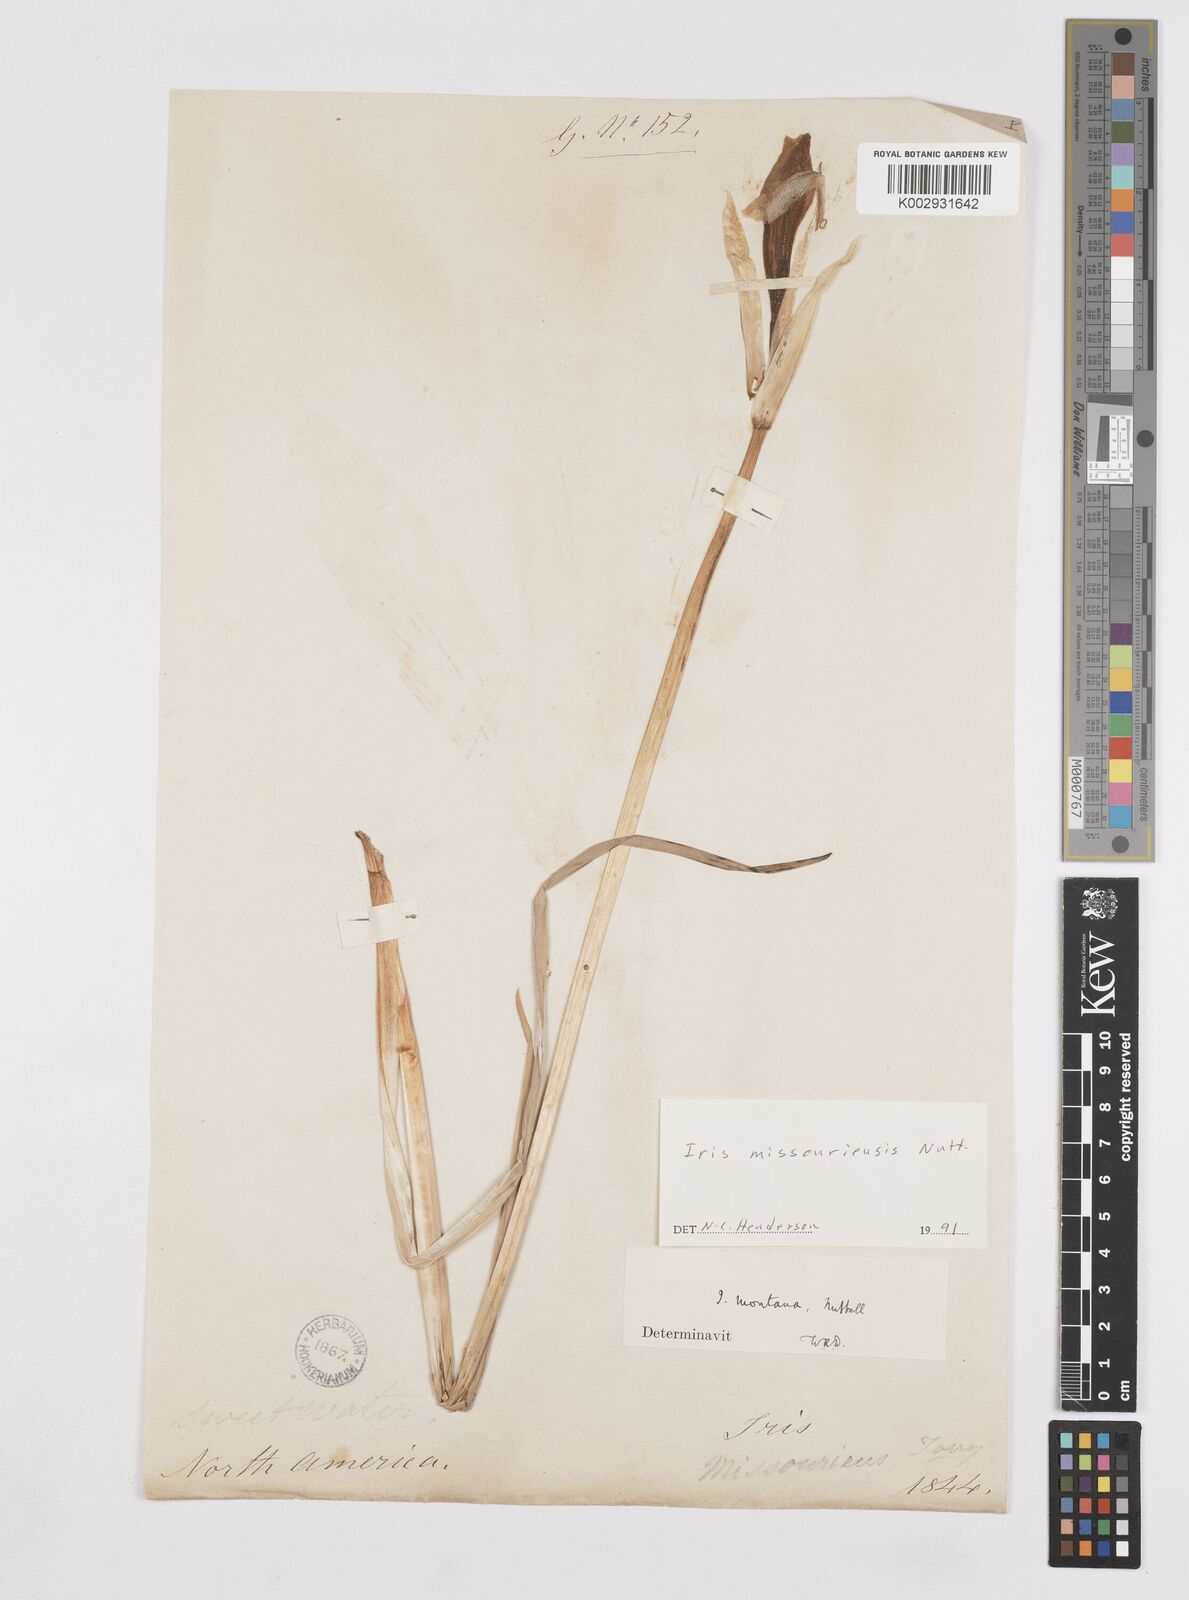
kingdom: Plantae
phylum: Tracheophyta
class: Liliopsida
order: Asparagales
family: Iridaceae
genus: Iris
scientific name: Iris missouriensis
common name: Rocky mountain iris
